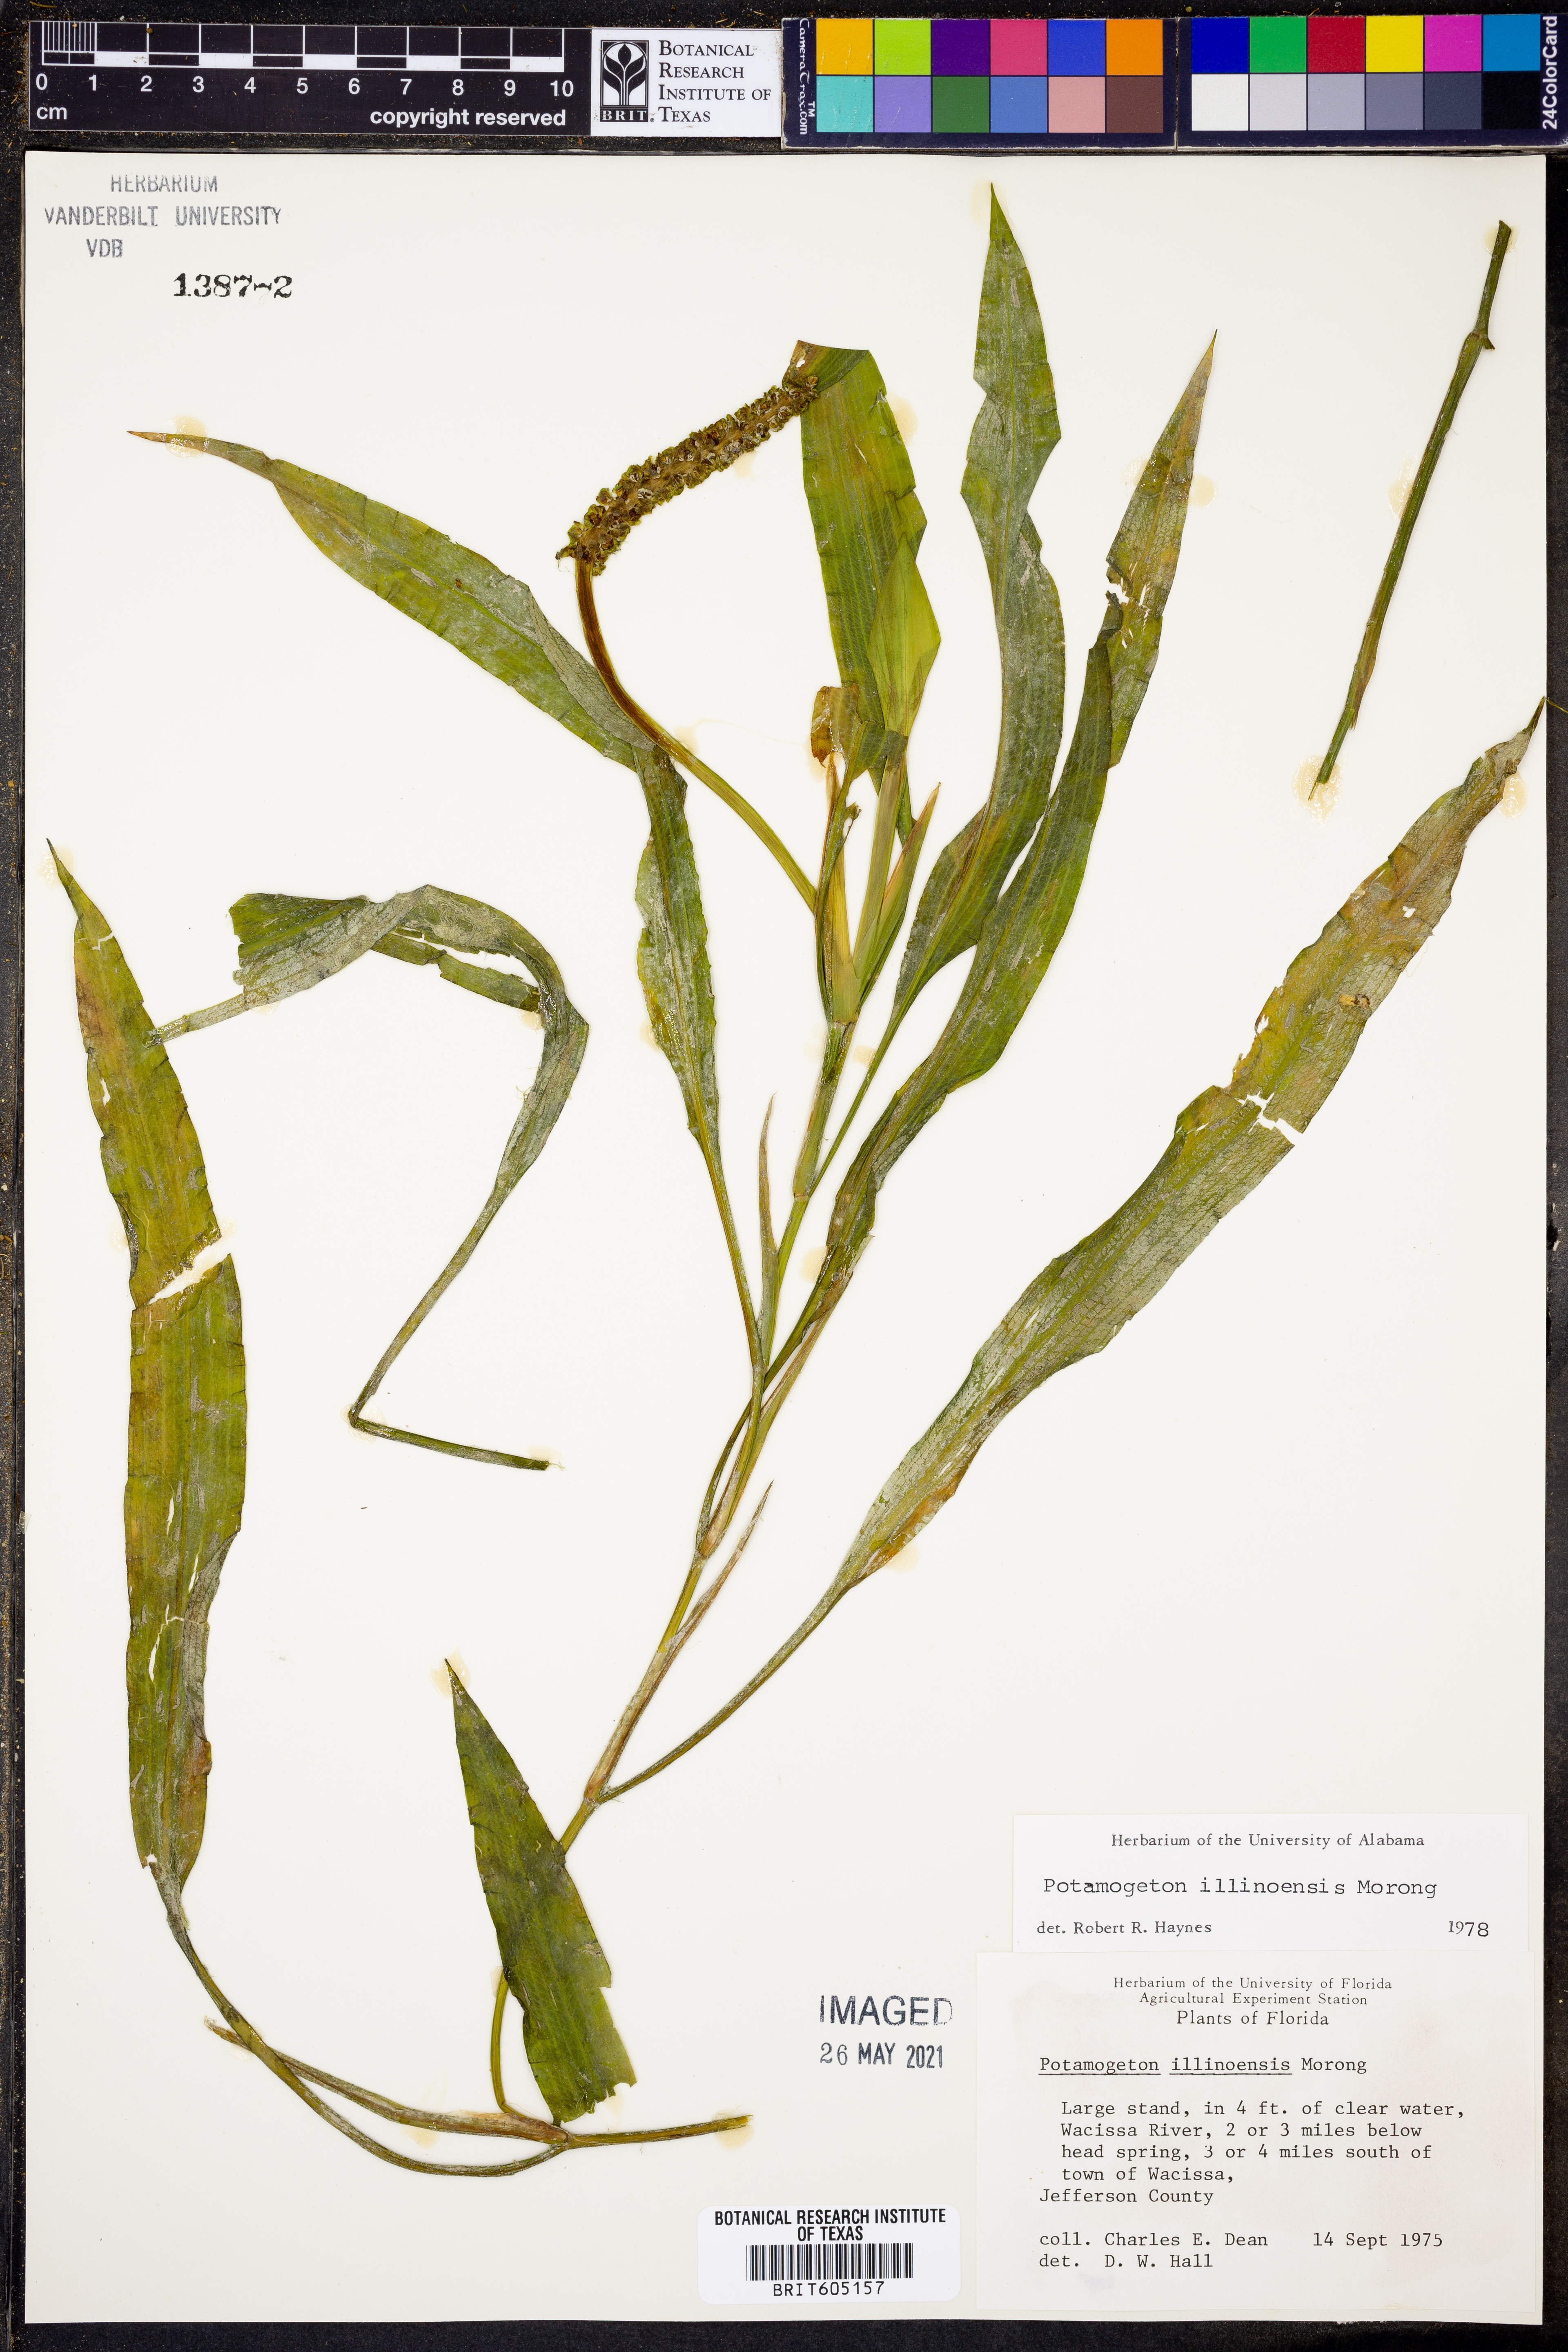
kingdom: Plantae
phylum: Tracheophyta
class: Liliopsida
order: Alismatales
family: Potamogetonaceae
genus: Potamogeton
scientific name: Potamogeton illinoensis
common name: Illinois pondweed
